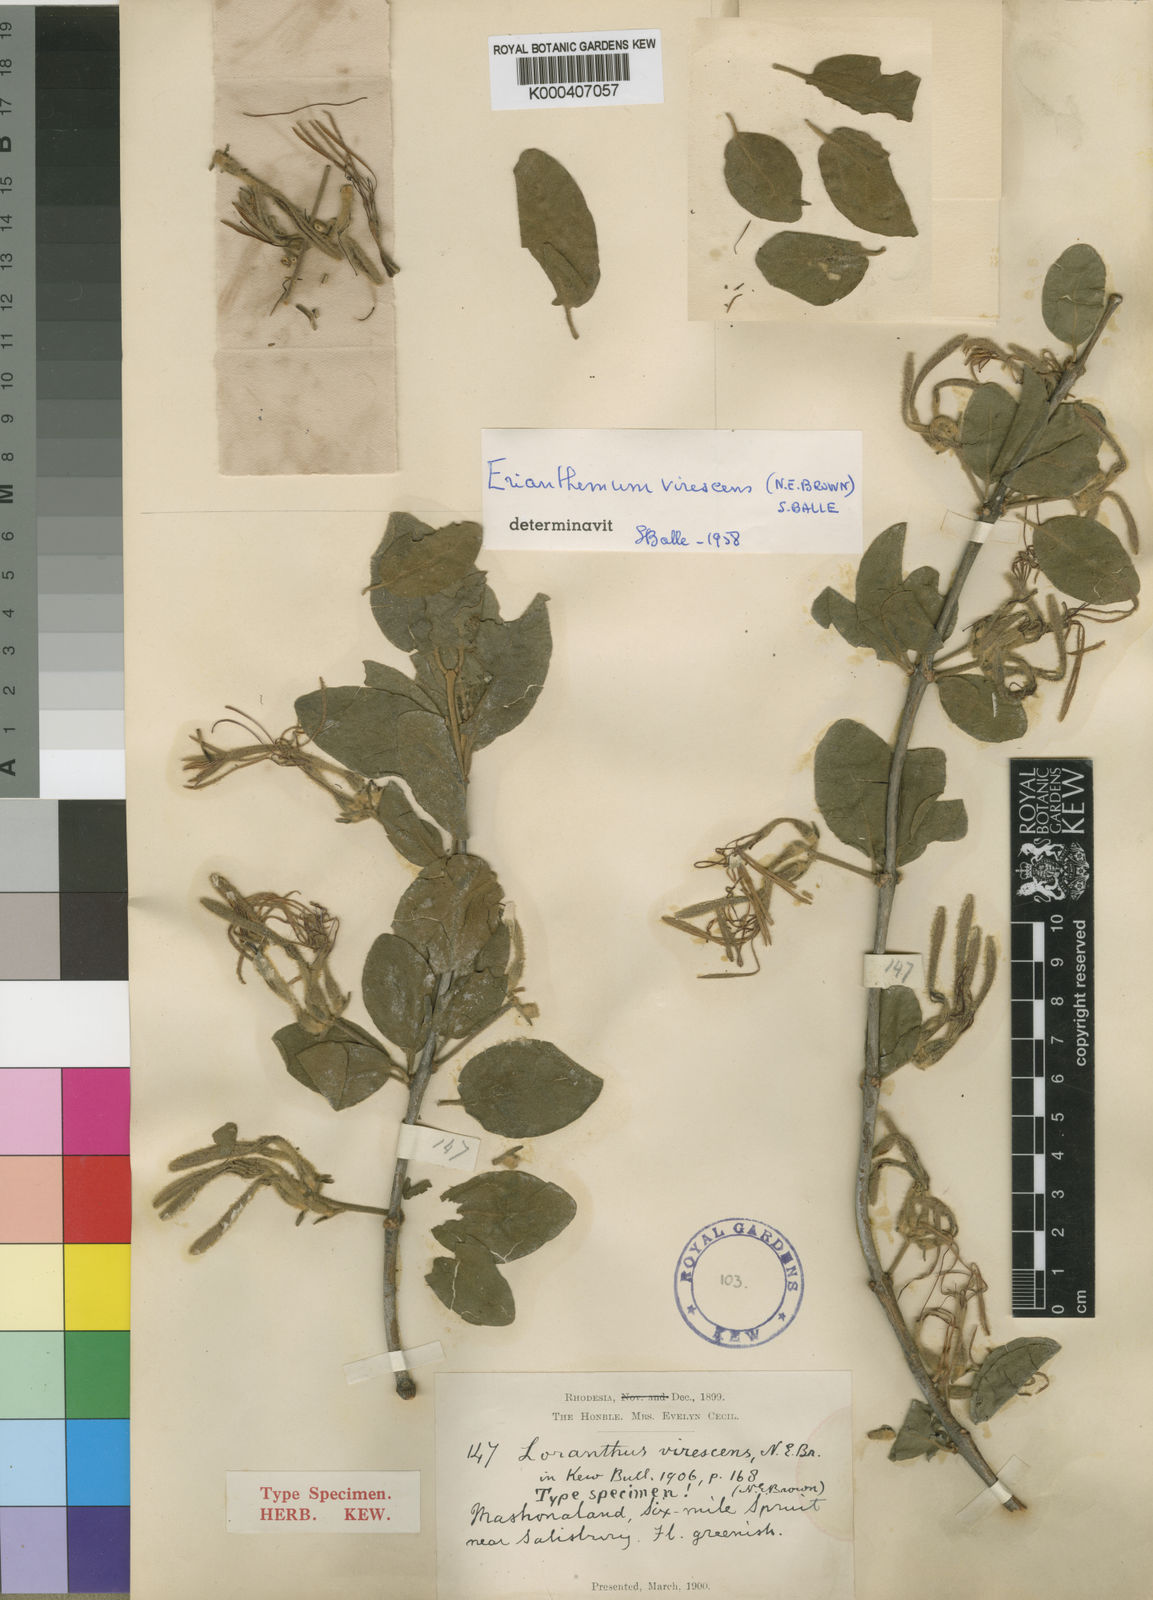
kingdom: Plantae
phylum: Tracheophyta
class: Magnoliopsida
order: Santalales
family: Loranthaceae
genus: Erianthemum
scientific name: Erianthemum virescens
